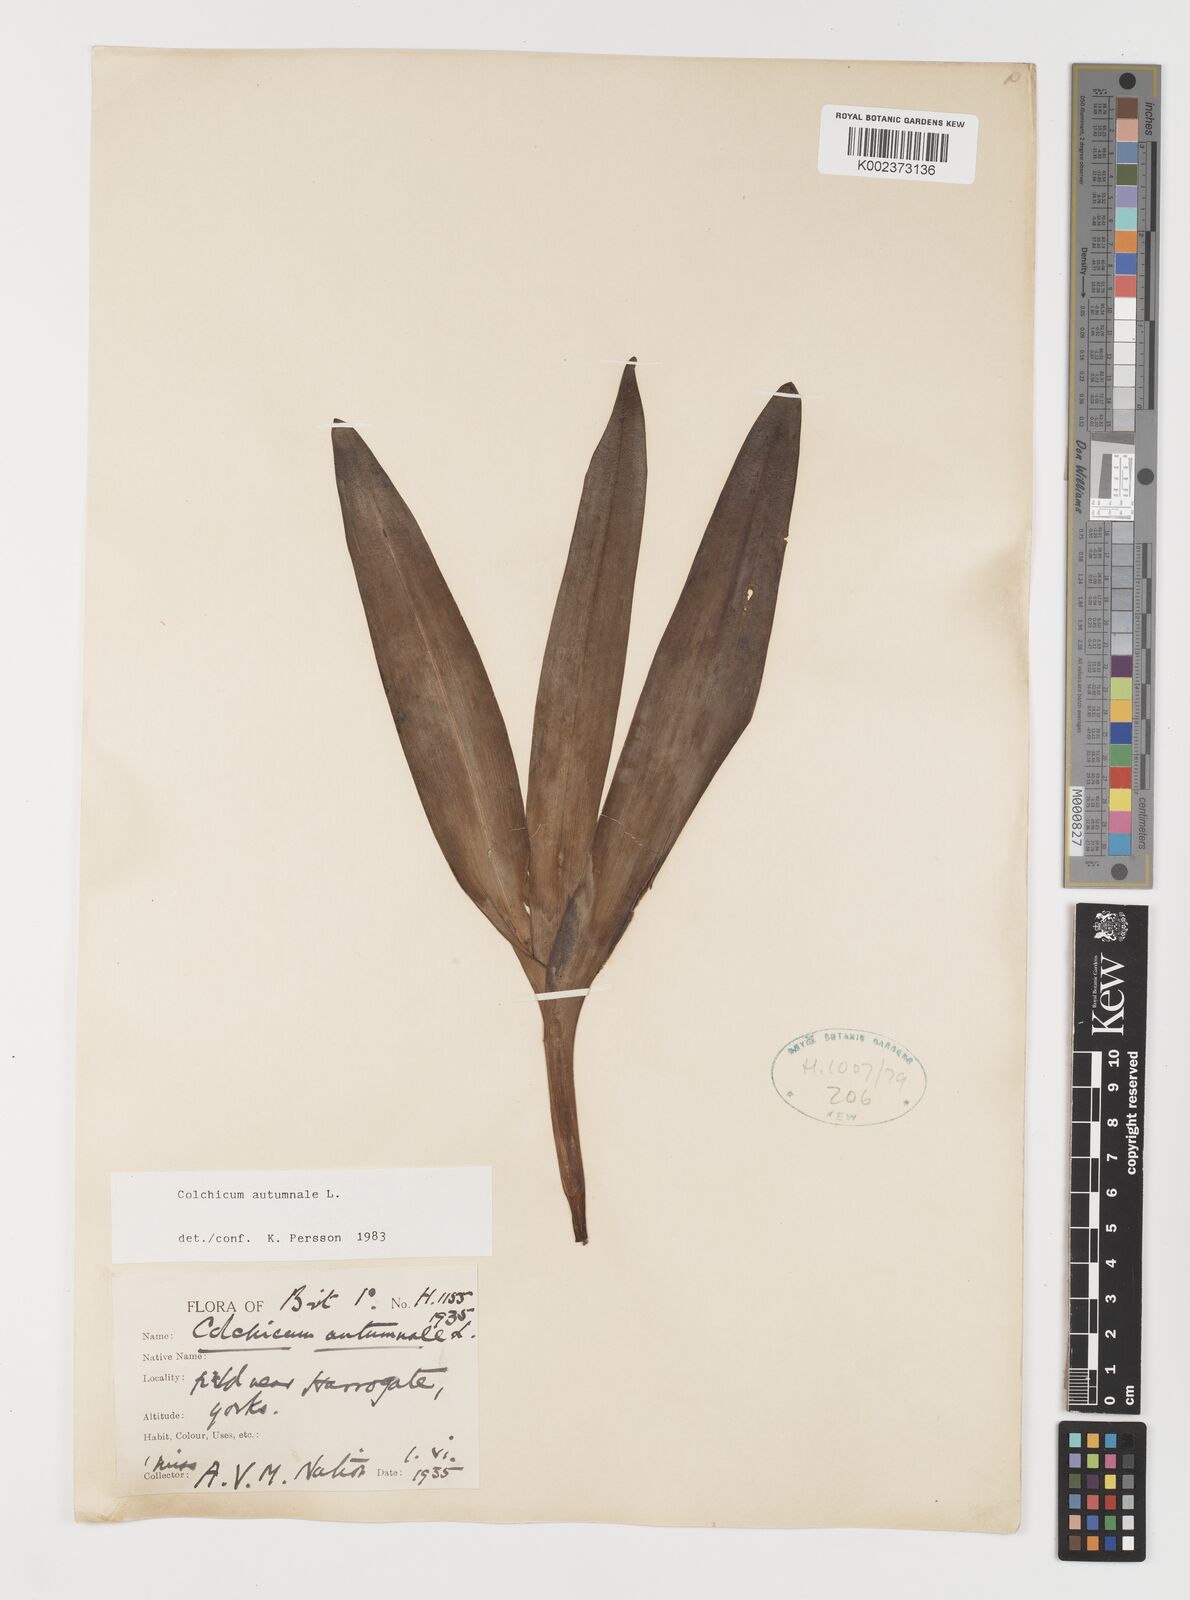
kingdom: Plantae
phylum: Tracheophyta
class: Liliopsida
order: Liliales
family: Colchicaceae
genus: Colchicum
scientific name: Colchicum autumnale
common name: Autumn crocus
